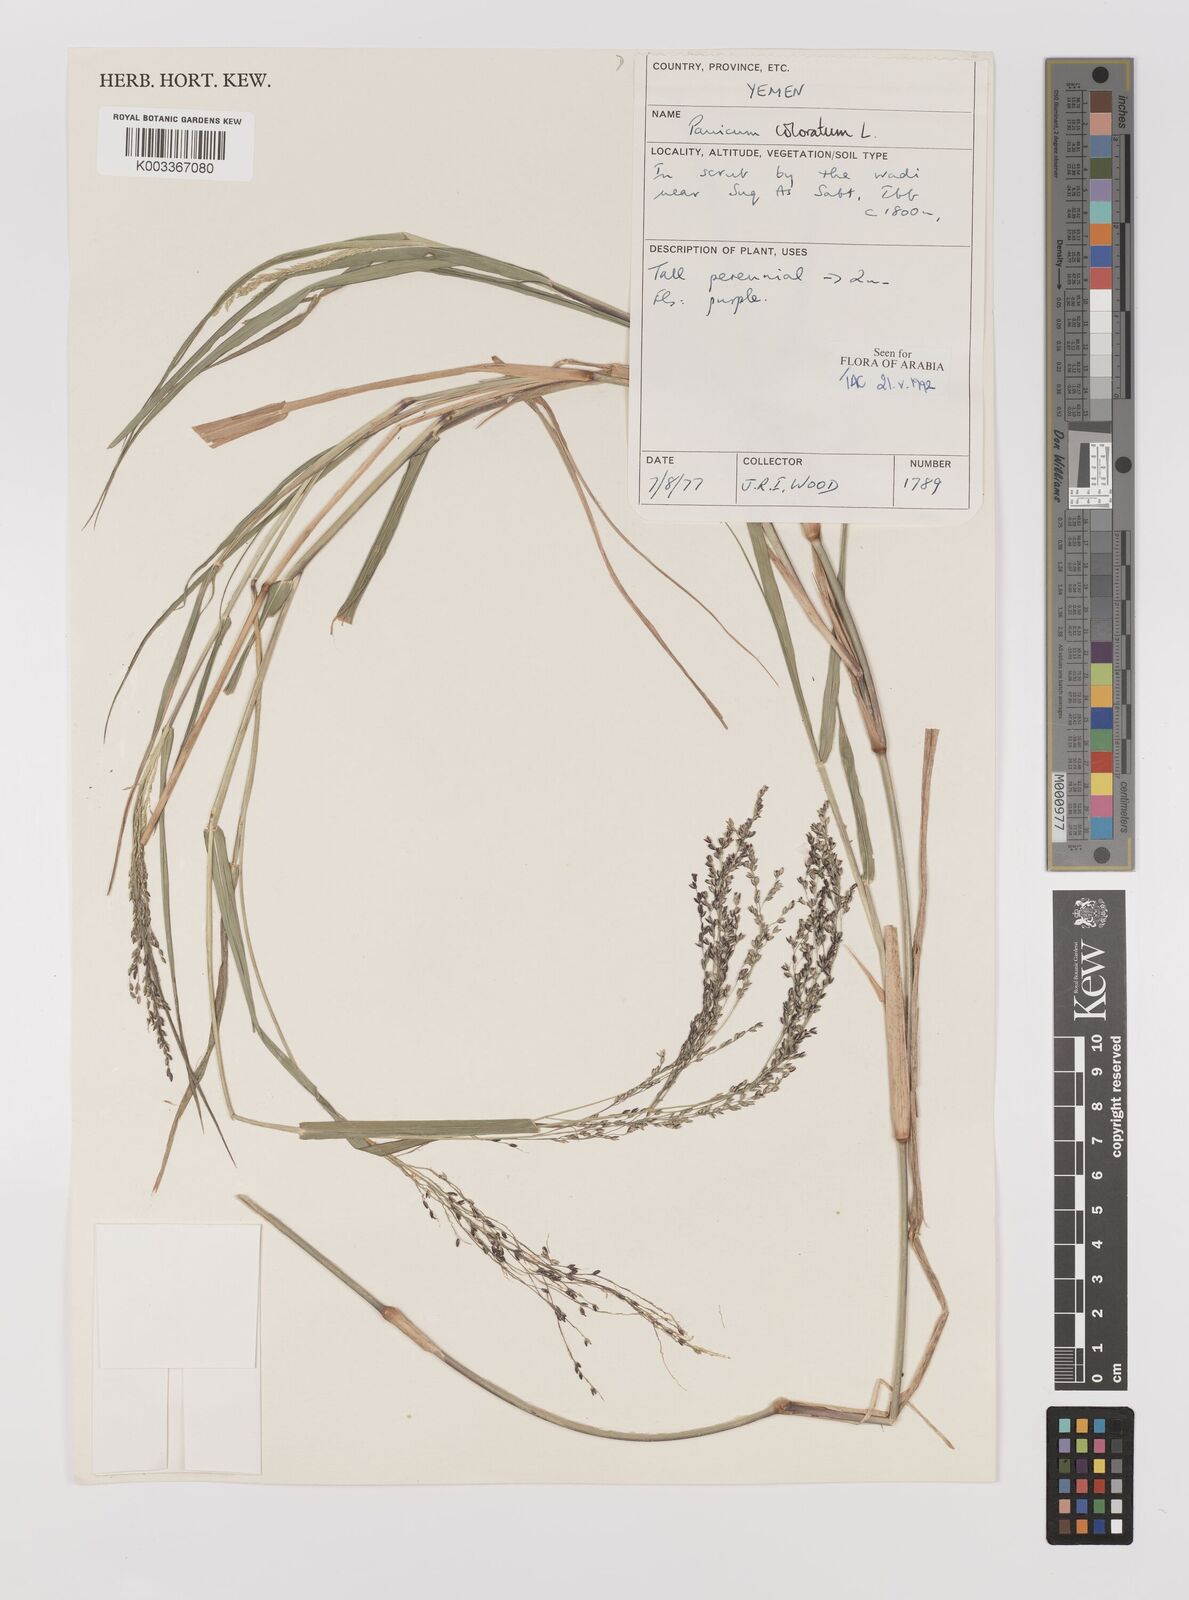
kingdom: Plantae
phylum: Tracheophyta
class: Liliopsida
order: Poales
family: Poaceae
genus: Echinochloa
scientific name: Echinochloa colonum
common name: Jungle rice
